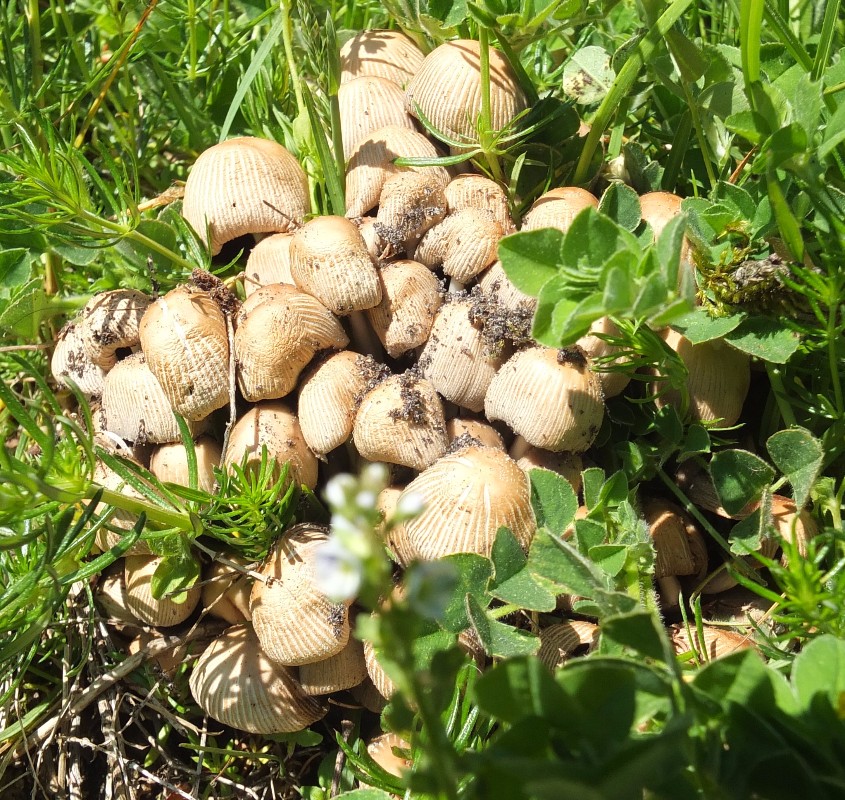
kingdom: Fungi
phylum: Basidiomycota
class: Agaricomycetes
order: Agaricales
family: Psathyrellaceae
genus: Coprinellus
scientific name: Coprinellus micaceus
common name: glimmer-blækhat
